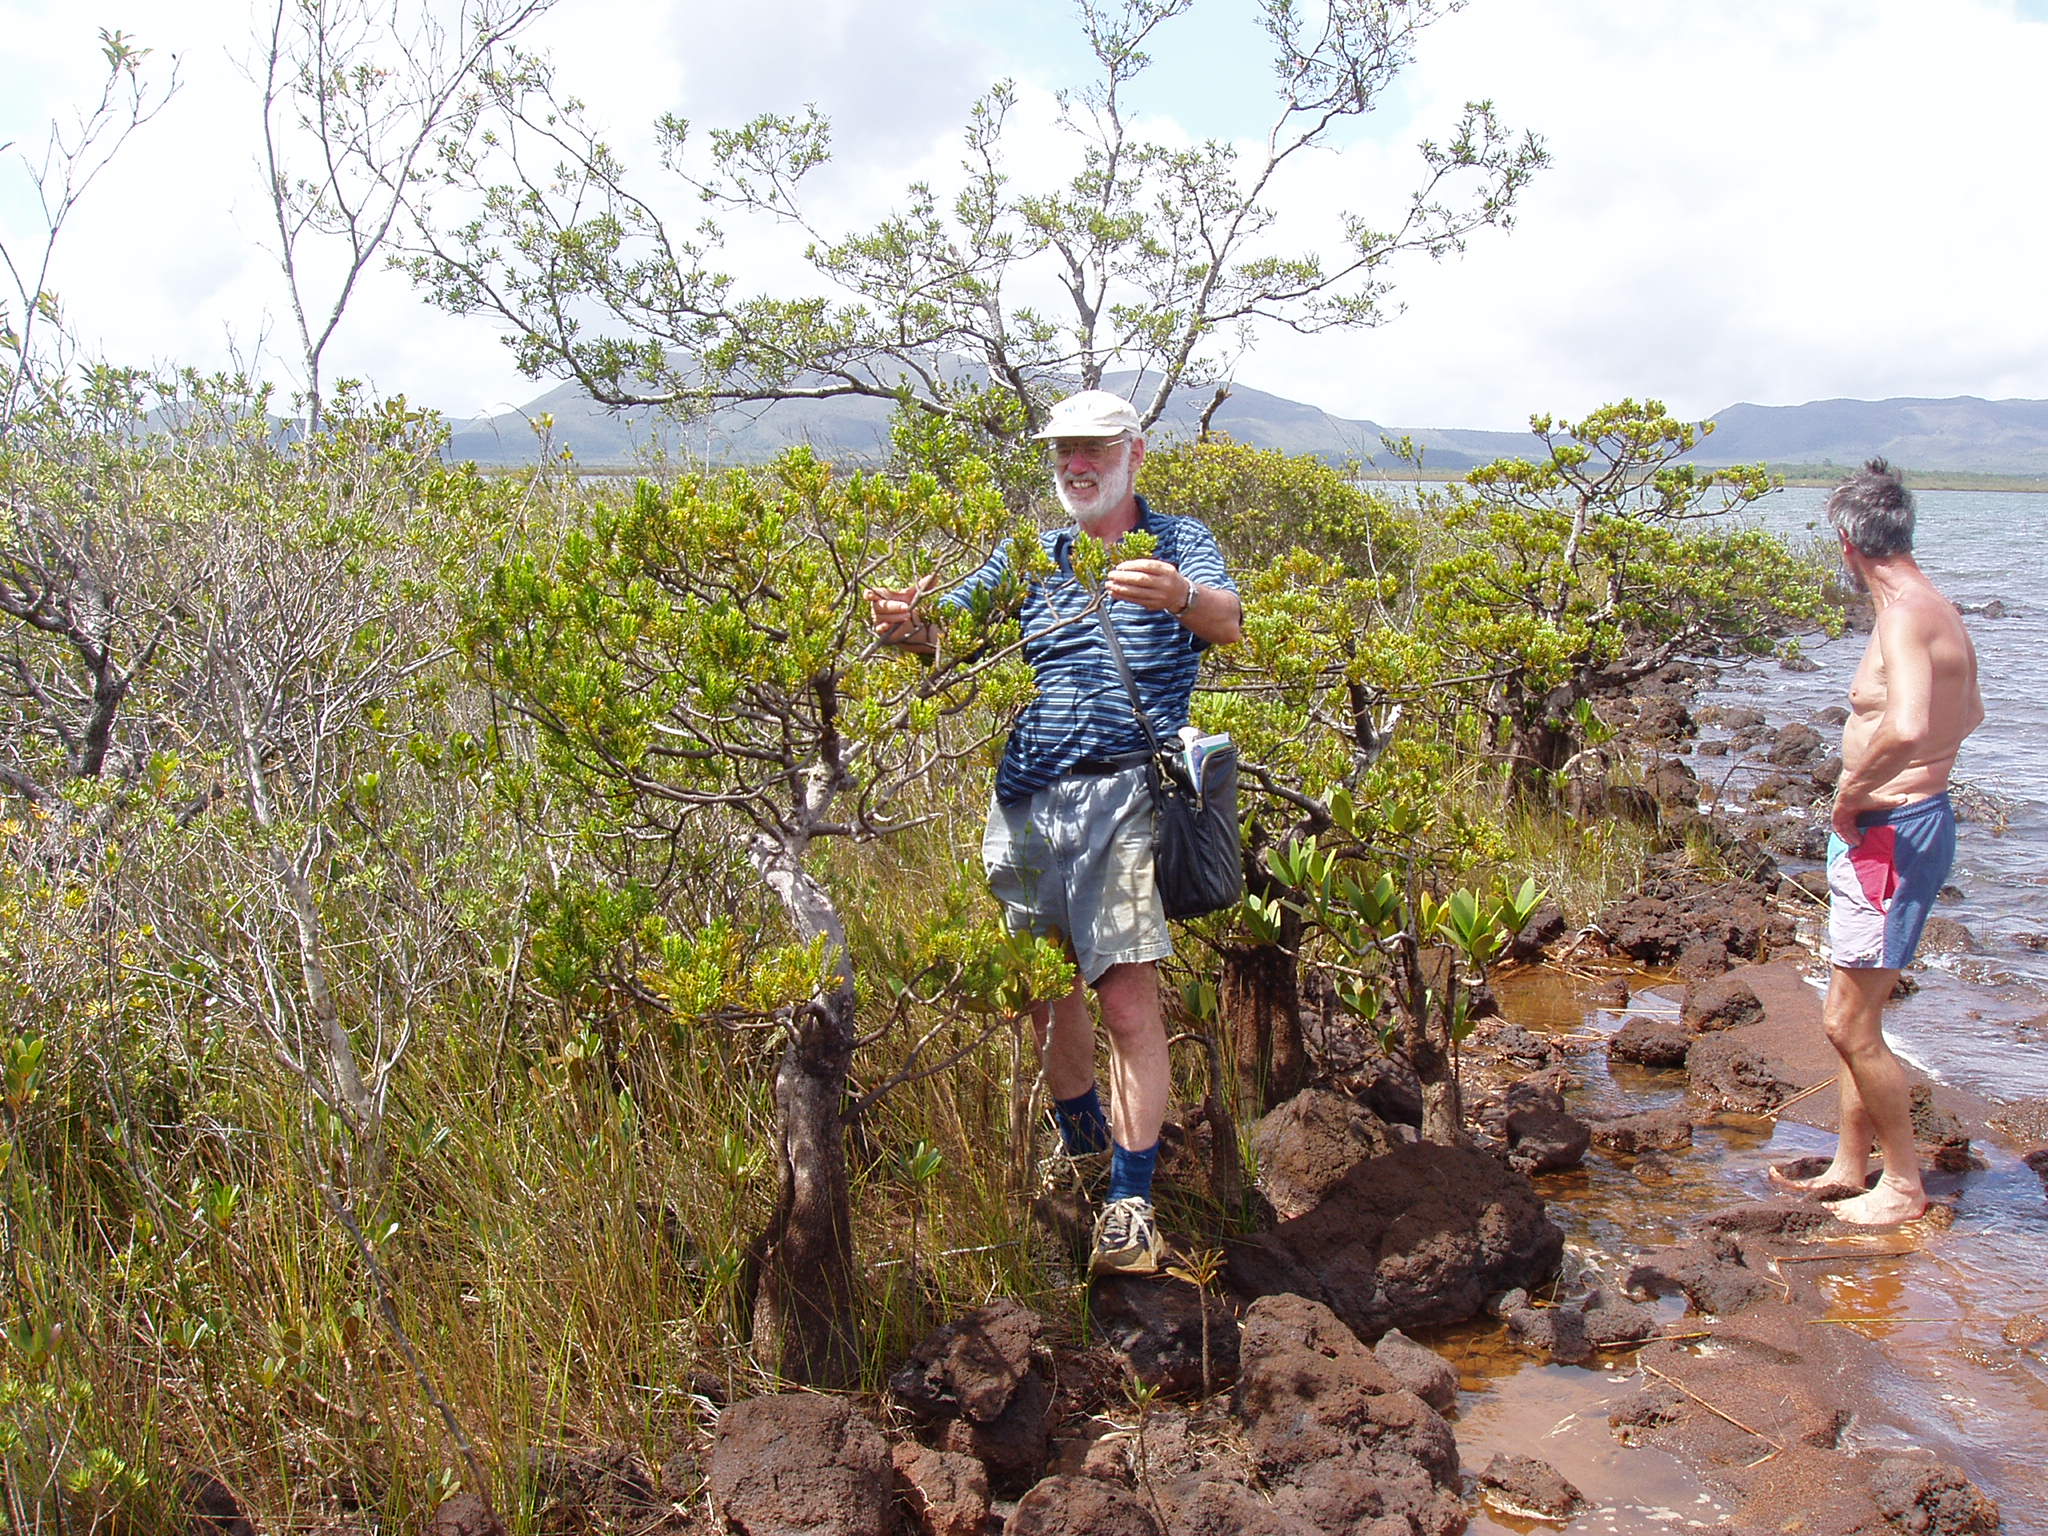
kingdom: Plantae
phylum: Tracheophyta
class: Pinopsida
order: Pinales
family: Podocarpaceae
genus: Retrophyllum
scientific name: Retrophyllum minus
